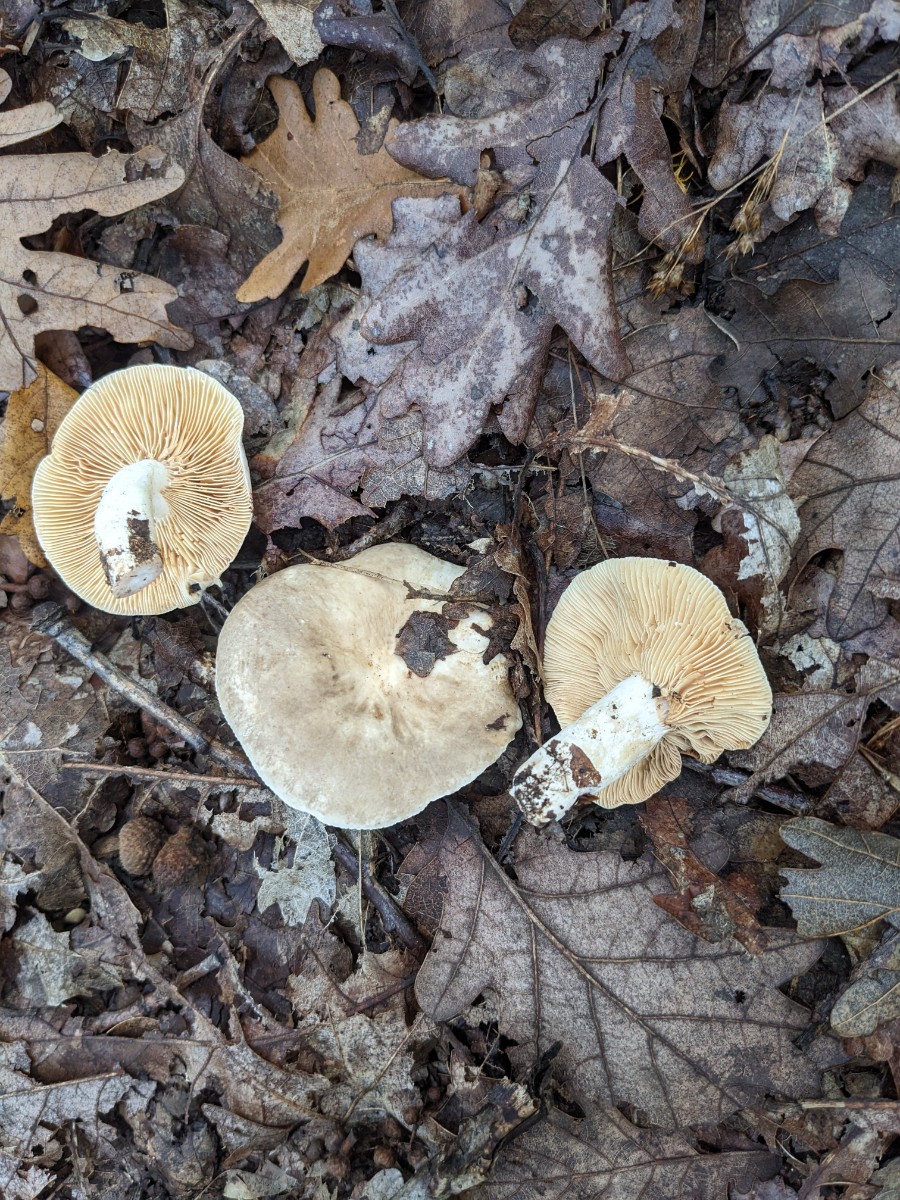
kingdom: Fungi
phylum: Basidiomycota
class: Agaricomycetes
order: Russulales
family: Russulaceae
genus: Lactarius
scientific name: Lactarius azonites
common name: røggrå mælkehat
